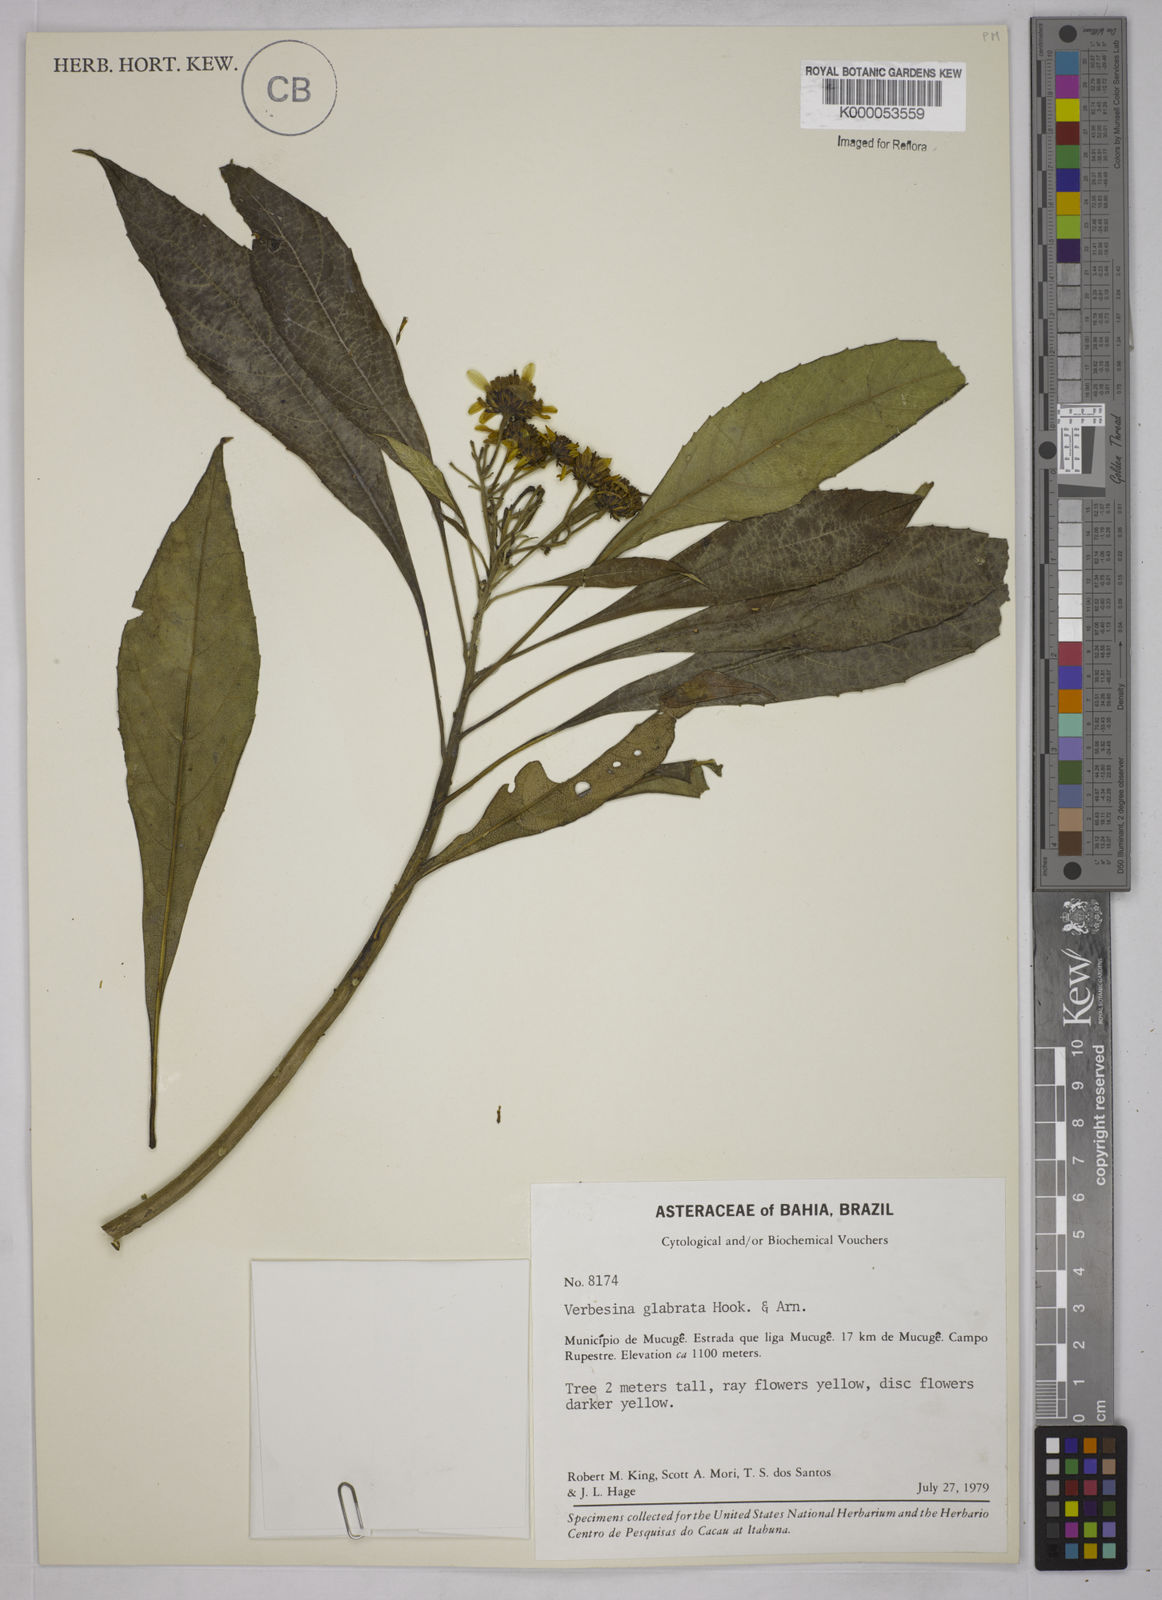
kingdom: Plantae
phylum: Tracheophyta
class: Magnoliopsida
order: Asterales
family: Asteraceae
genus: Verbesina
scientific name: Verbesina glabrata
